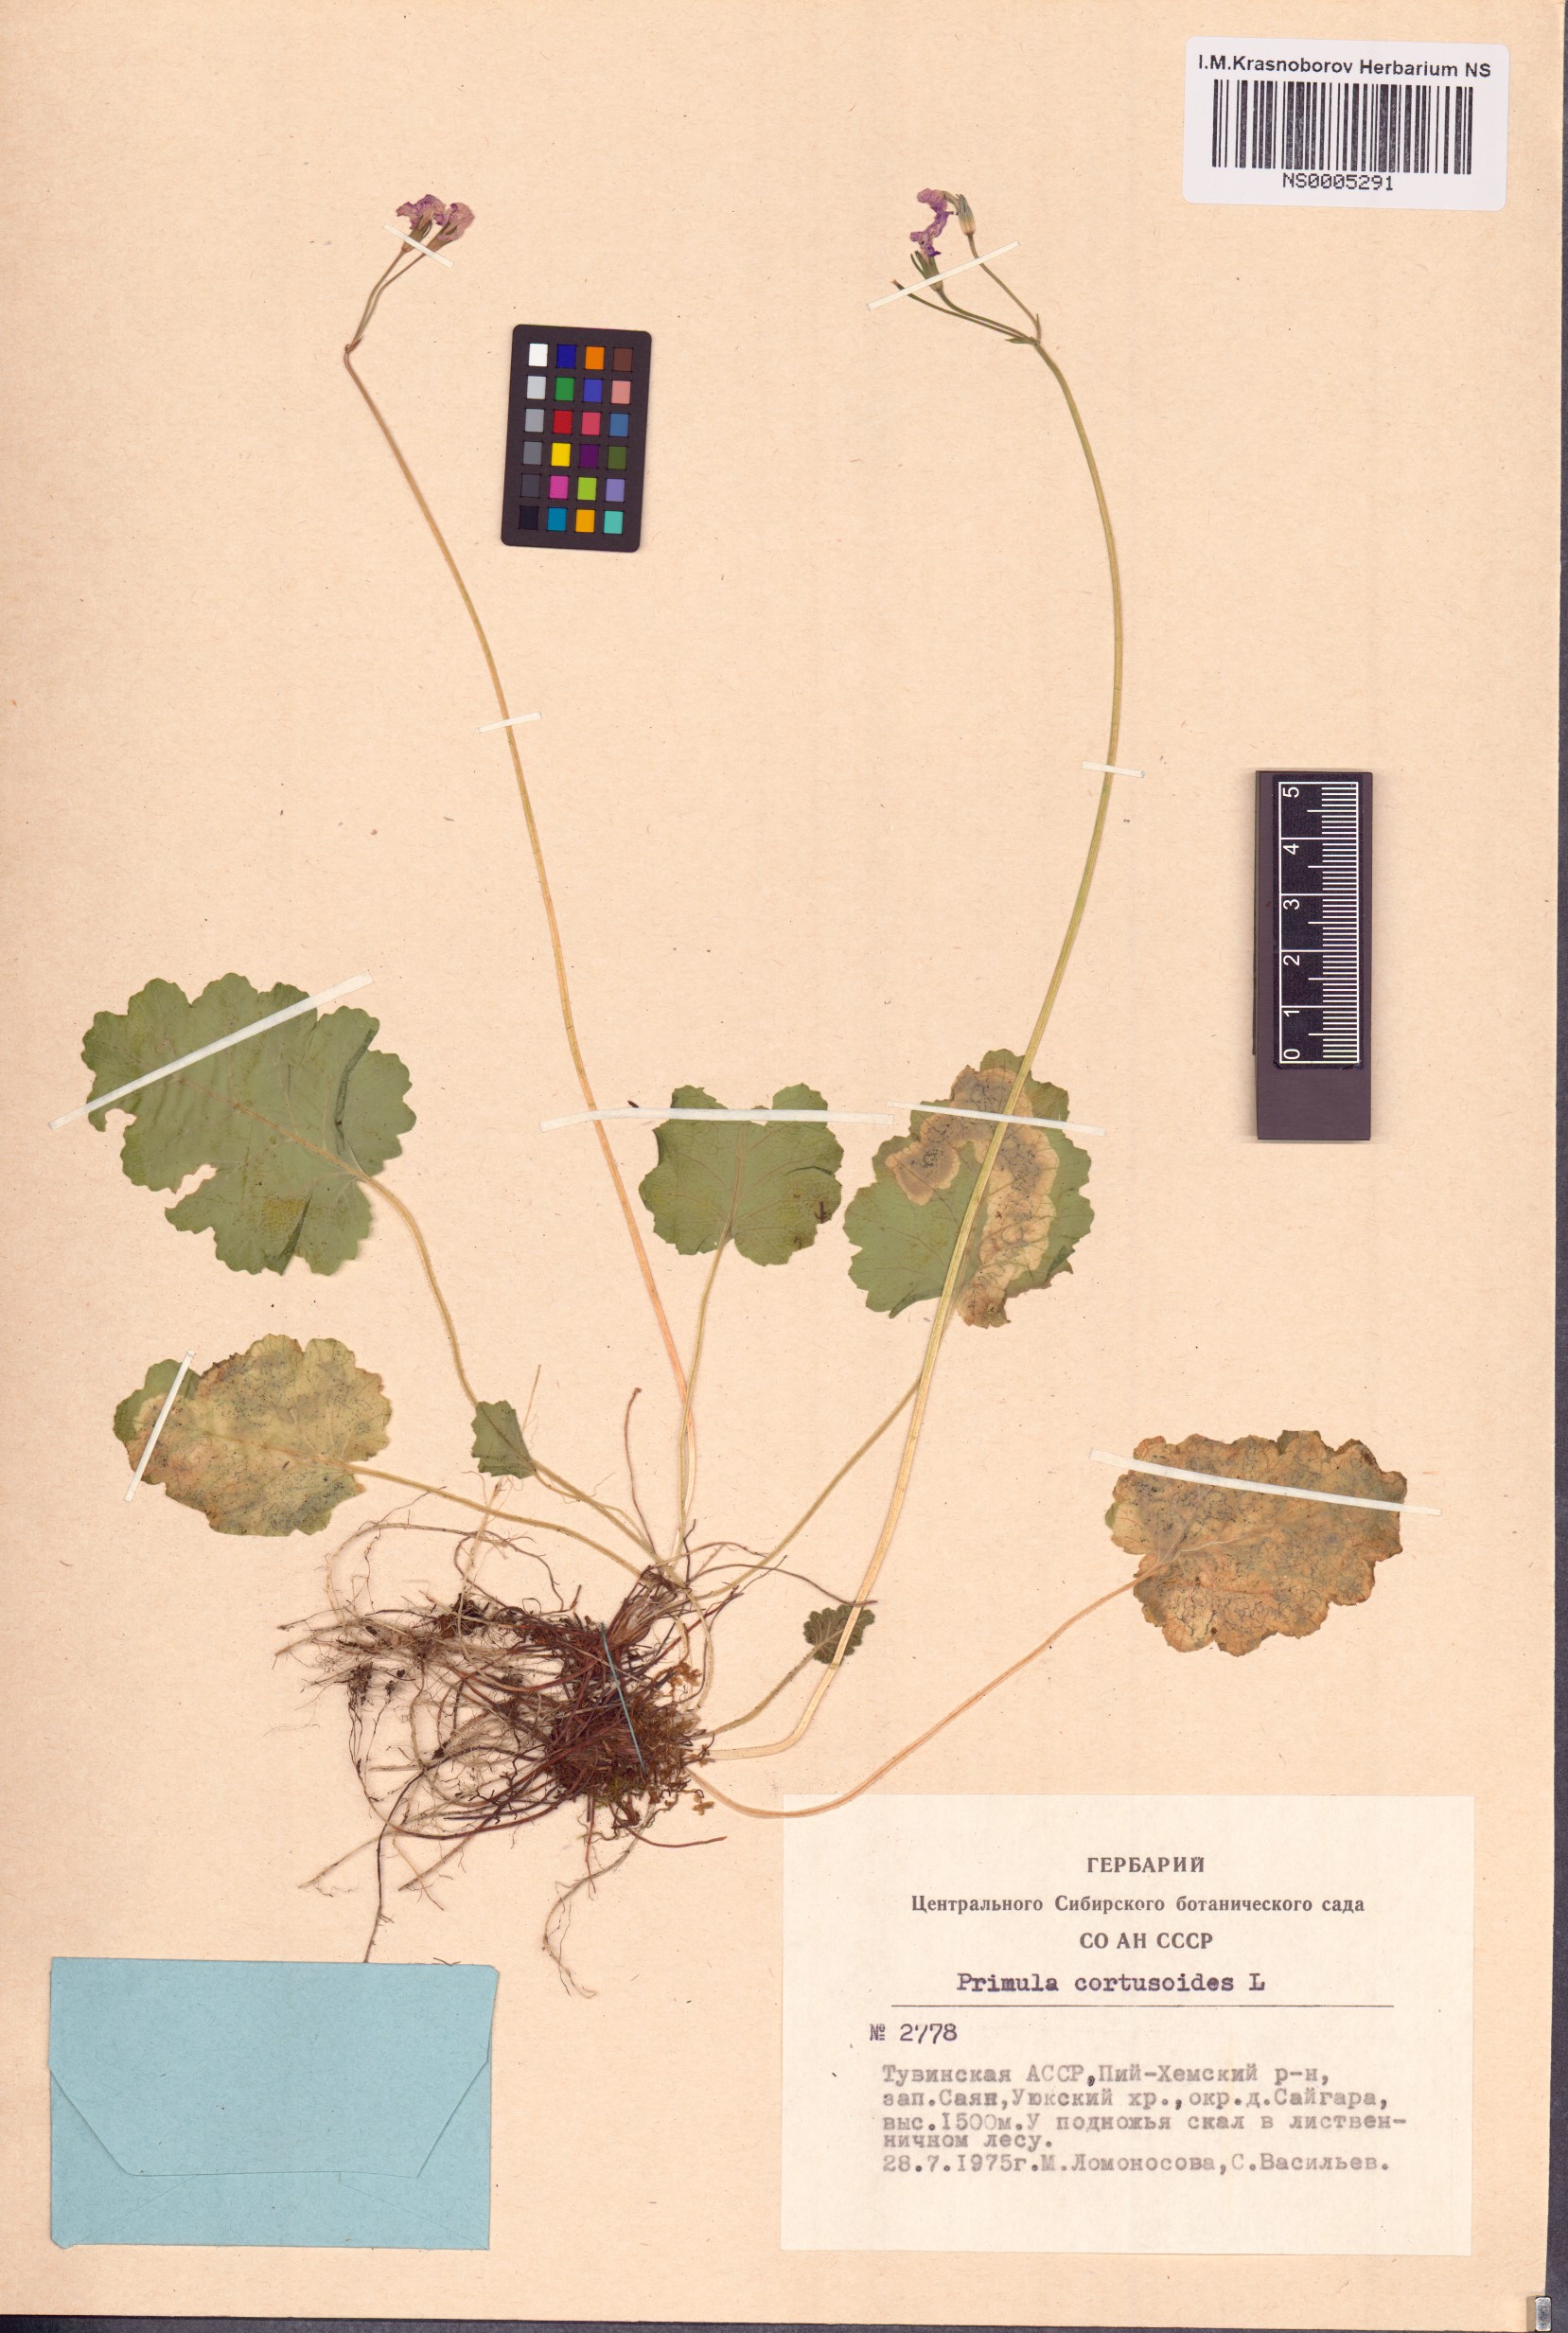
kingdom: Plantae
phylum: Tracheophyta
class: Magnoliopsida
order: Ericales
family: Primulaceae
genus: Primula
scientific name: Primula cortusoides
